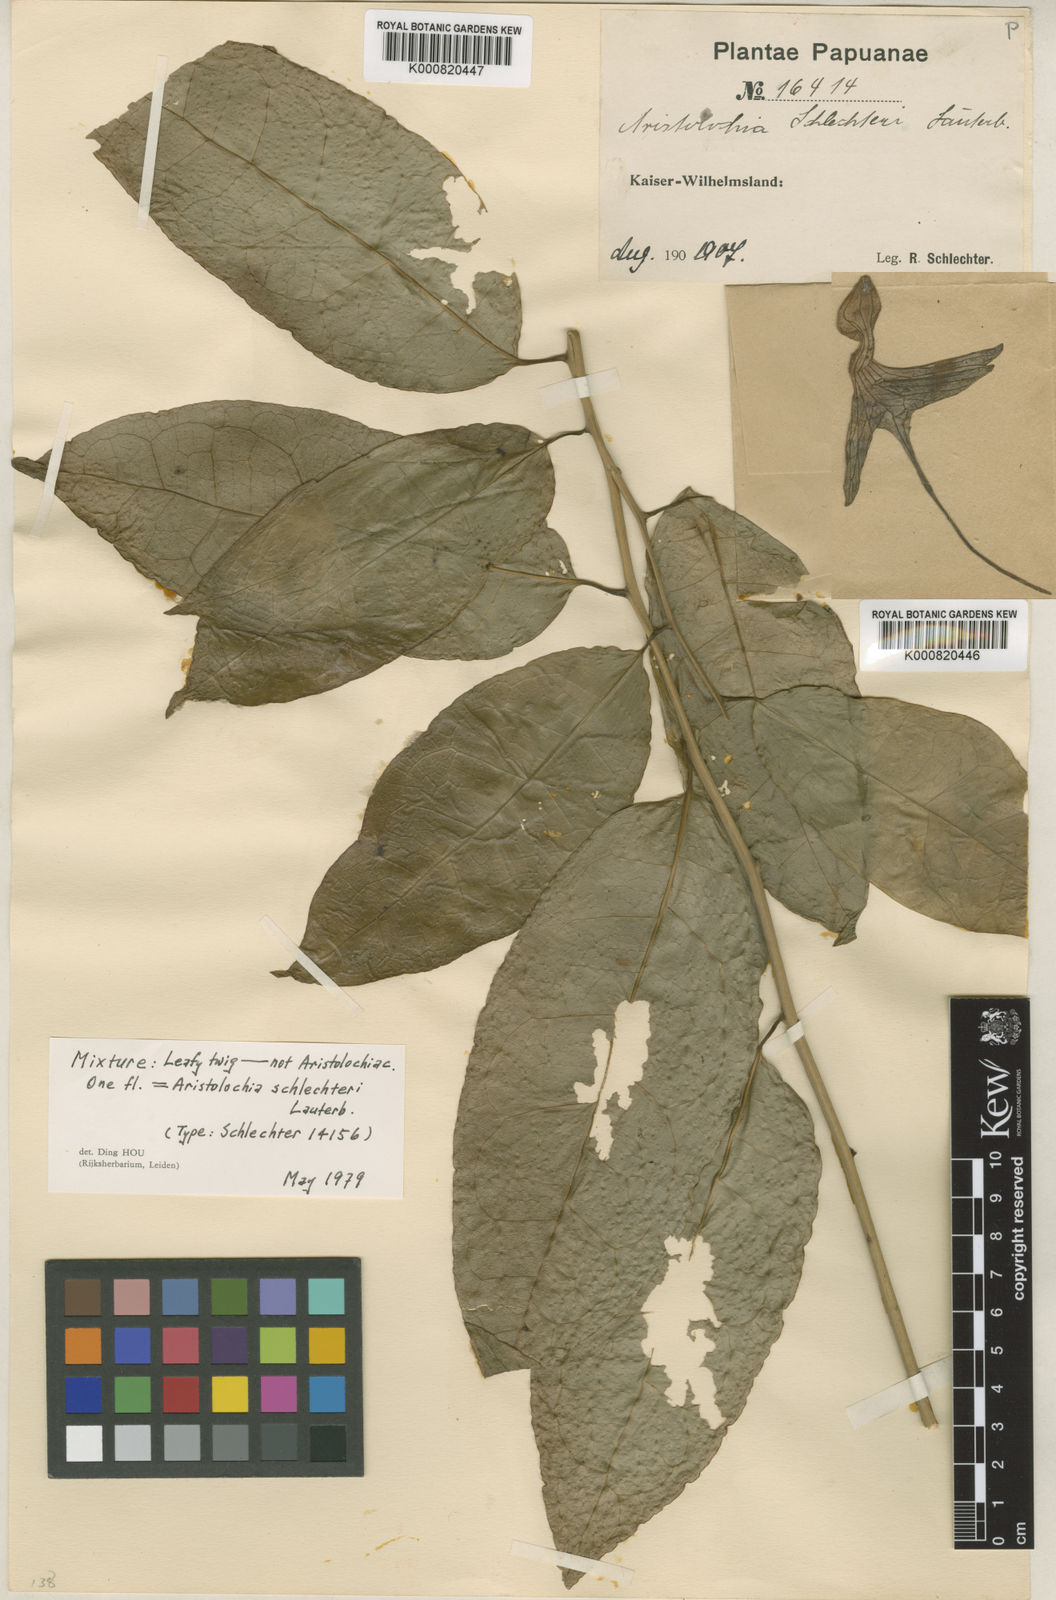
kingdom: Plantae
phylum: Tracheophyta
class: Magnoliopsida
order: Piperales
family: Aristolochiaceae
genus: Aristolochia
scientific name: Aristolochia schlechteri
